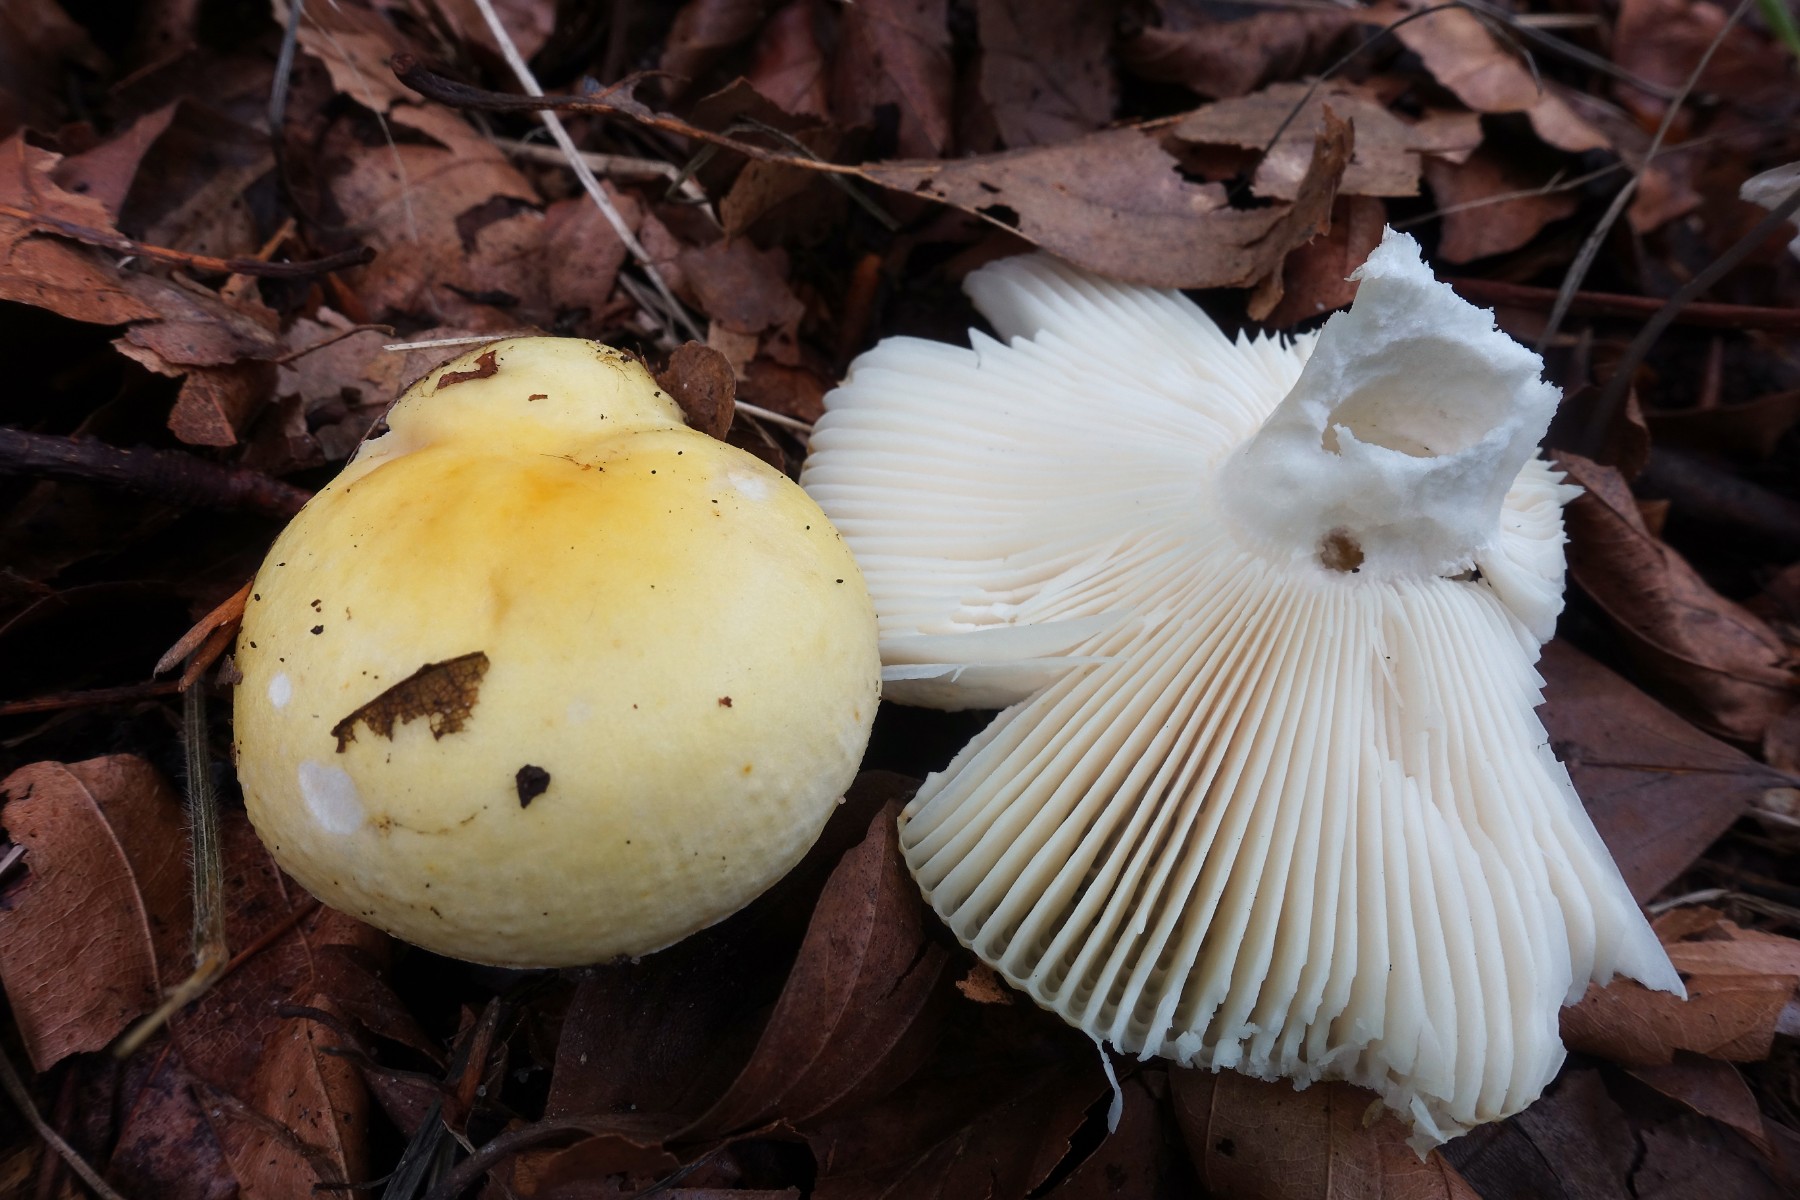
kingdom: Fungi
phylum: Basidiomycota
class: Agaricomycetes
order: Russulales
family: Russulaceae
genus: Russula
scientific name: Russula solaris
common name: sol-skørhat
